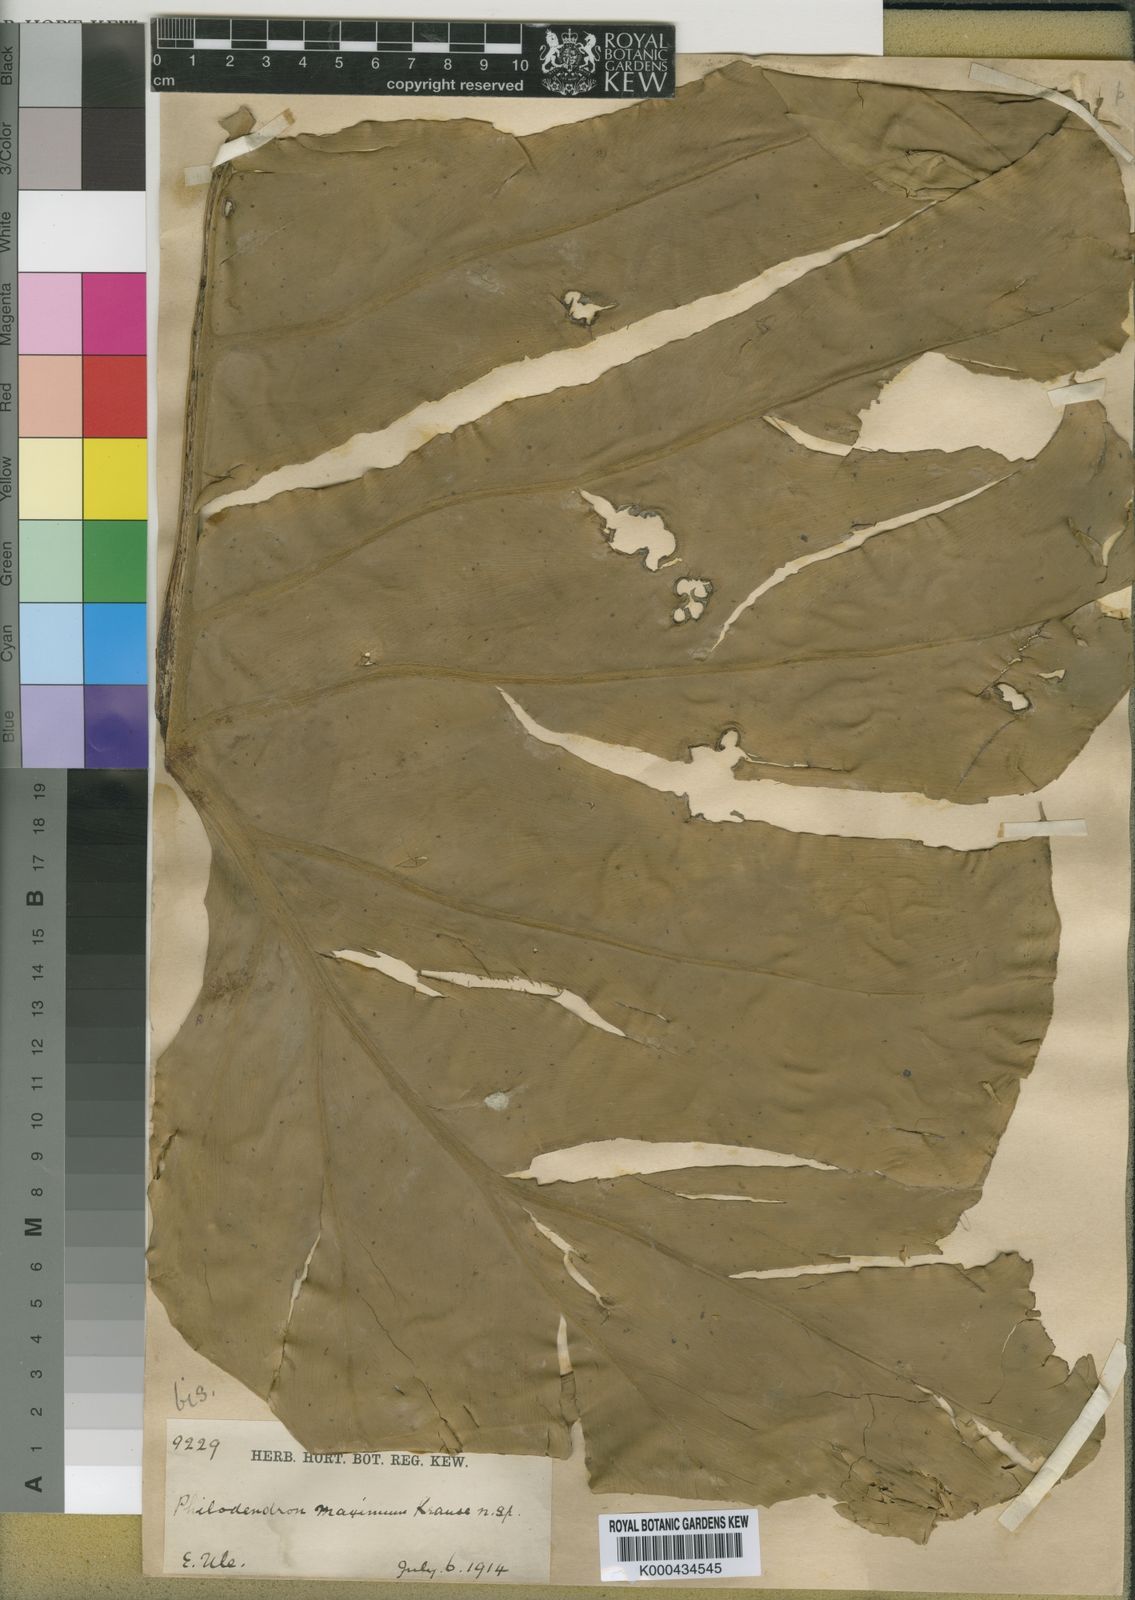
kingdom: Plantae
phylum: Tracheophyta
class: Liliopsida
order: Alismatales
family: Araceae
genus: Philodendron
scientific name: Philodendron maximum
